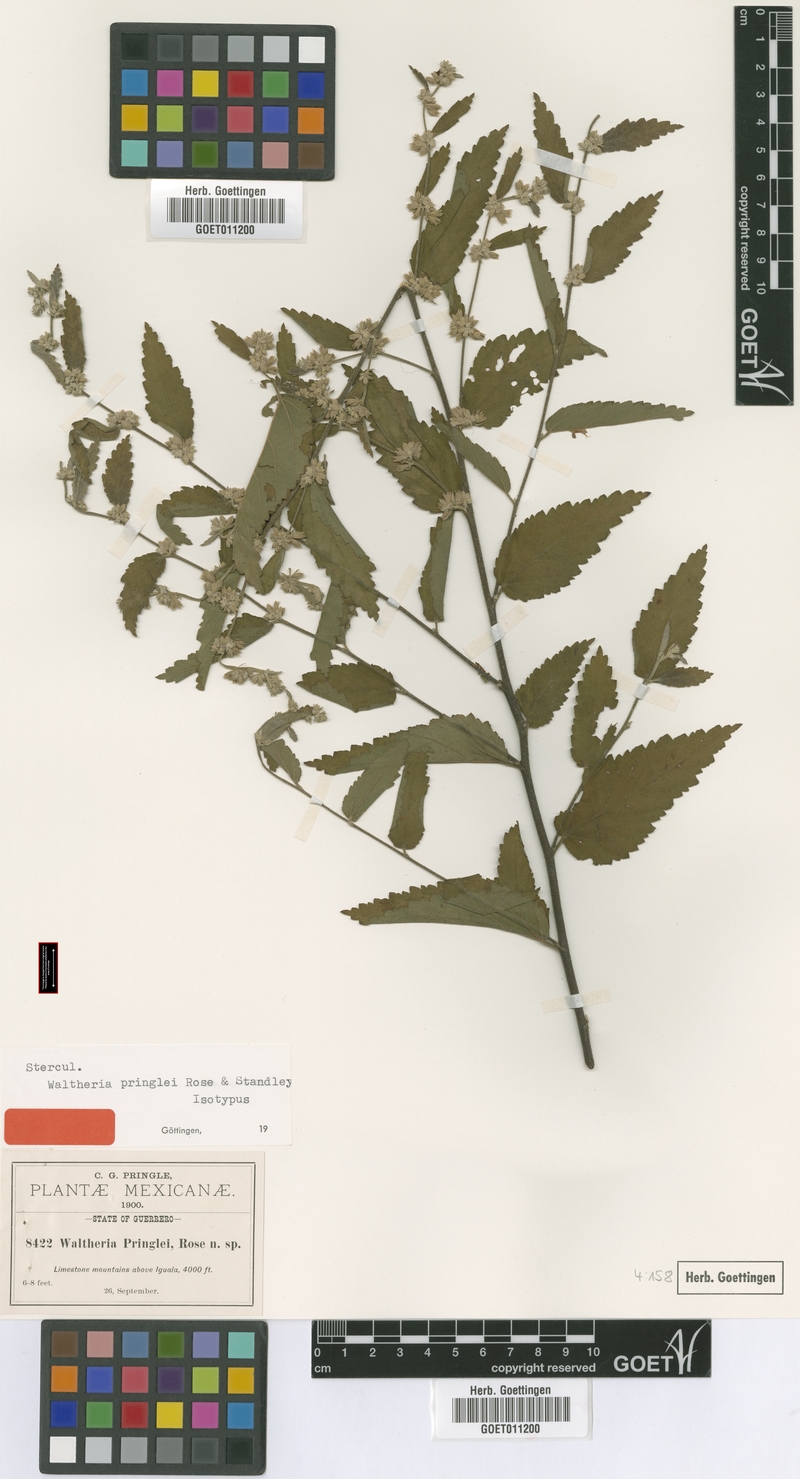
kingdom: Plantae
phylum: Tracheophyta
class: Magnoliopsida
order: Malvales
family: Malvaceae
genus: Waltheria
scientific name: Waltheria pringlei
